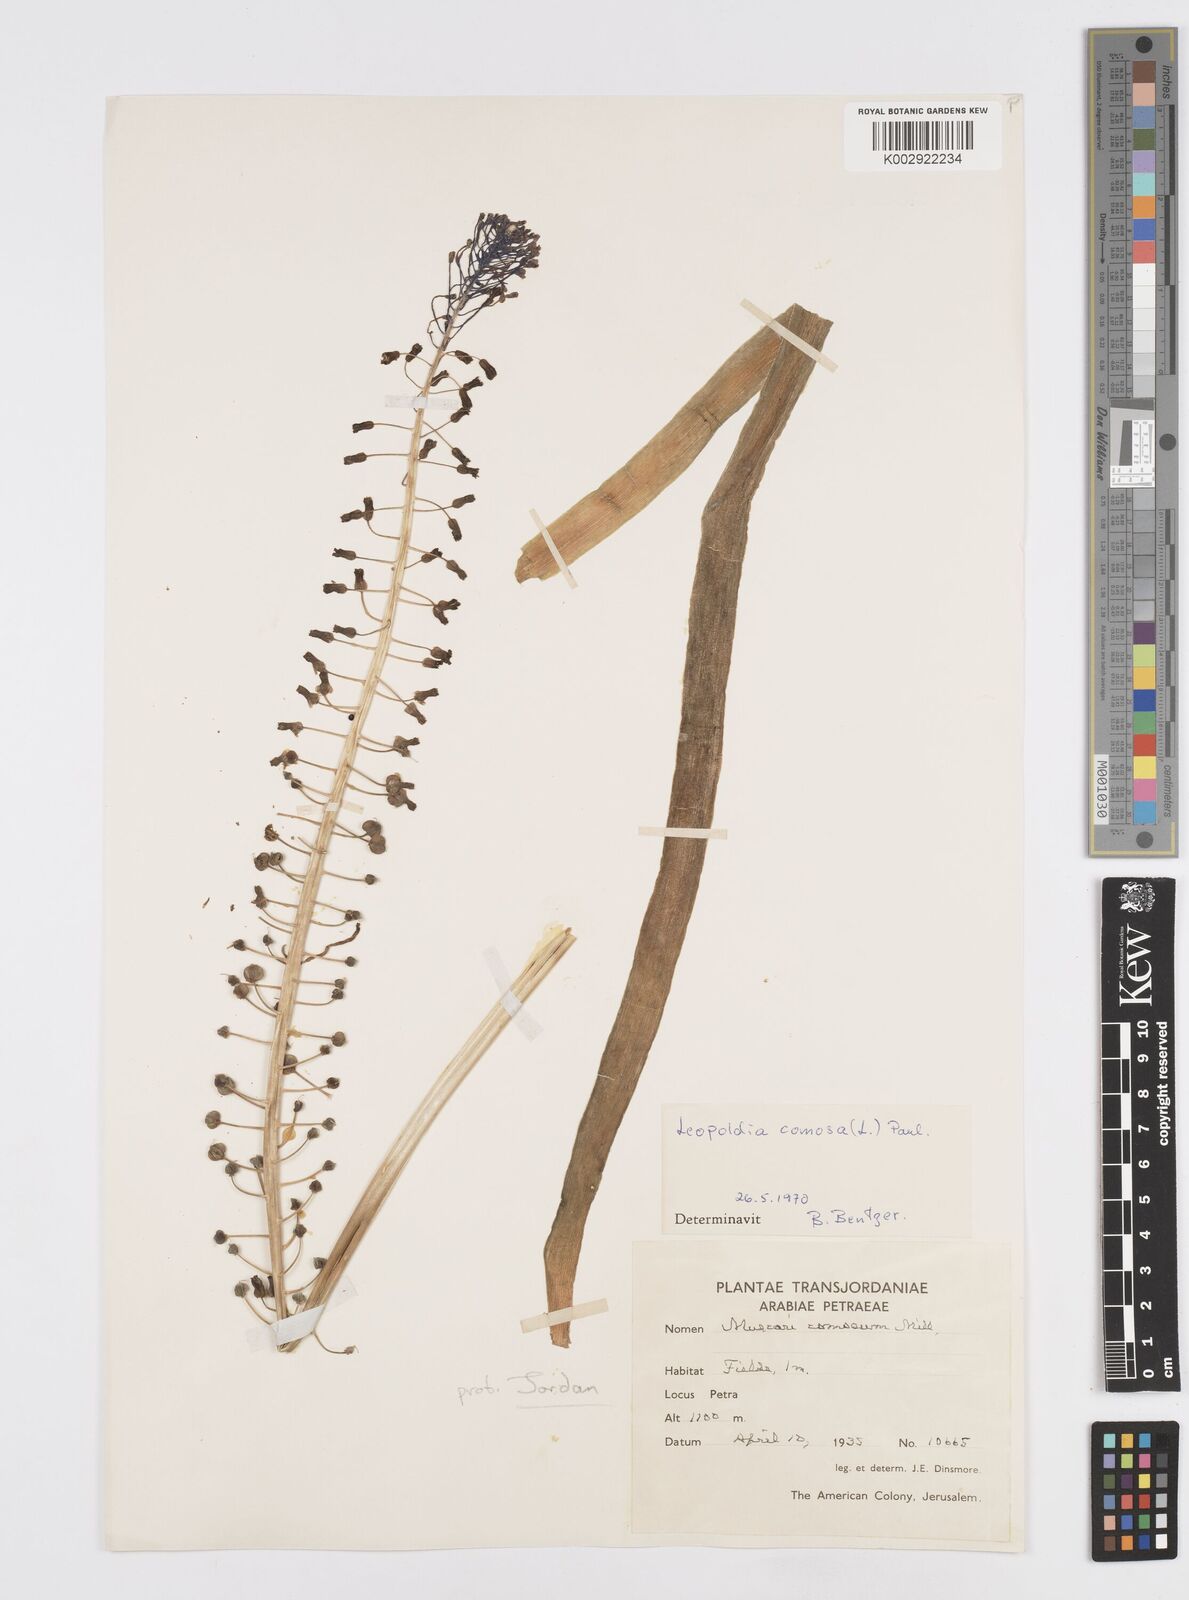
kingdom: Plantae
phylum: Tracheophyta
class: Liliopsida
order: Asparagales
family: Asparagaceae
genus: Muscari
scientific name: Muscari comosum
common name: Tassel hyacinth
